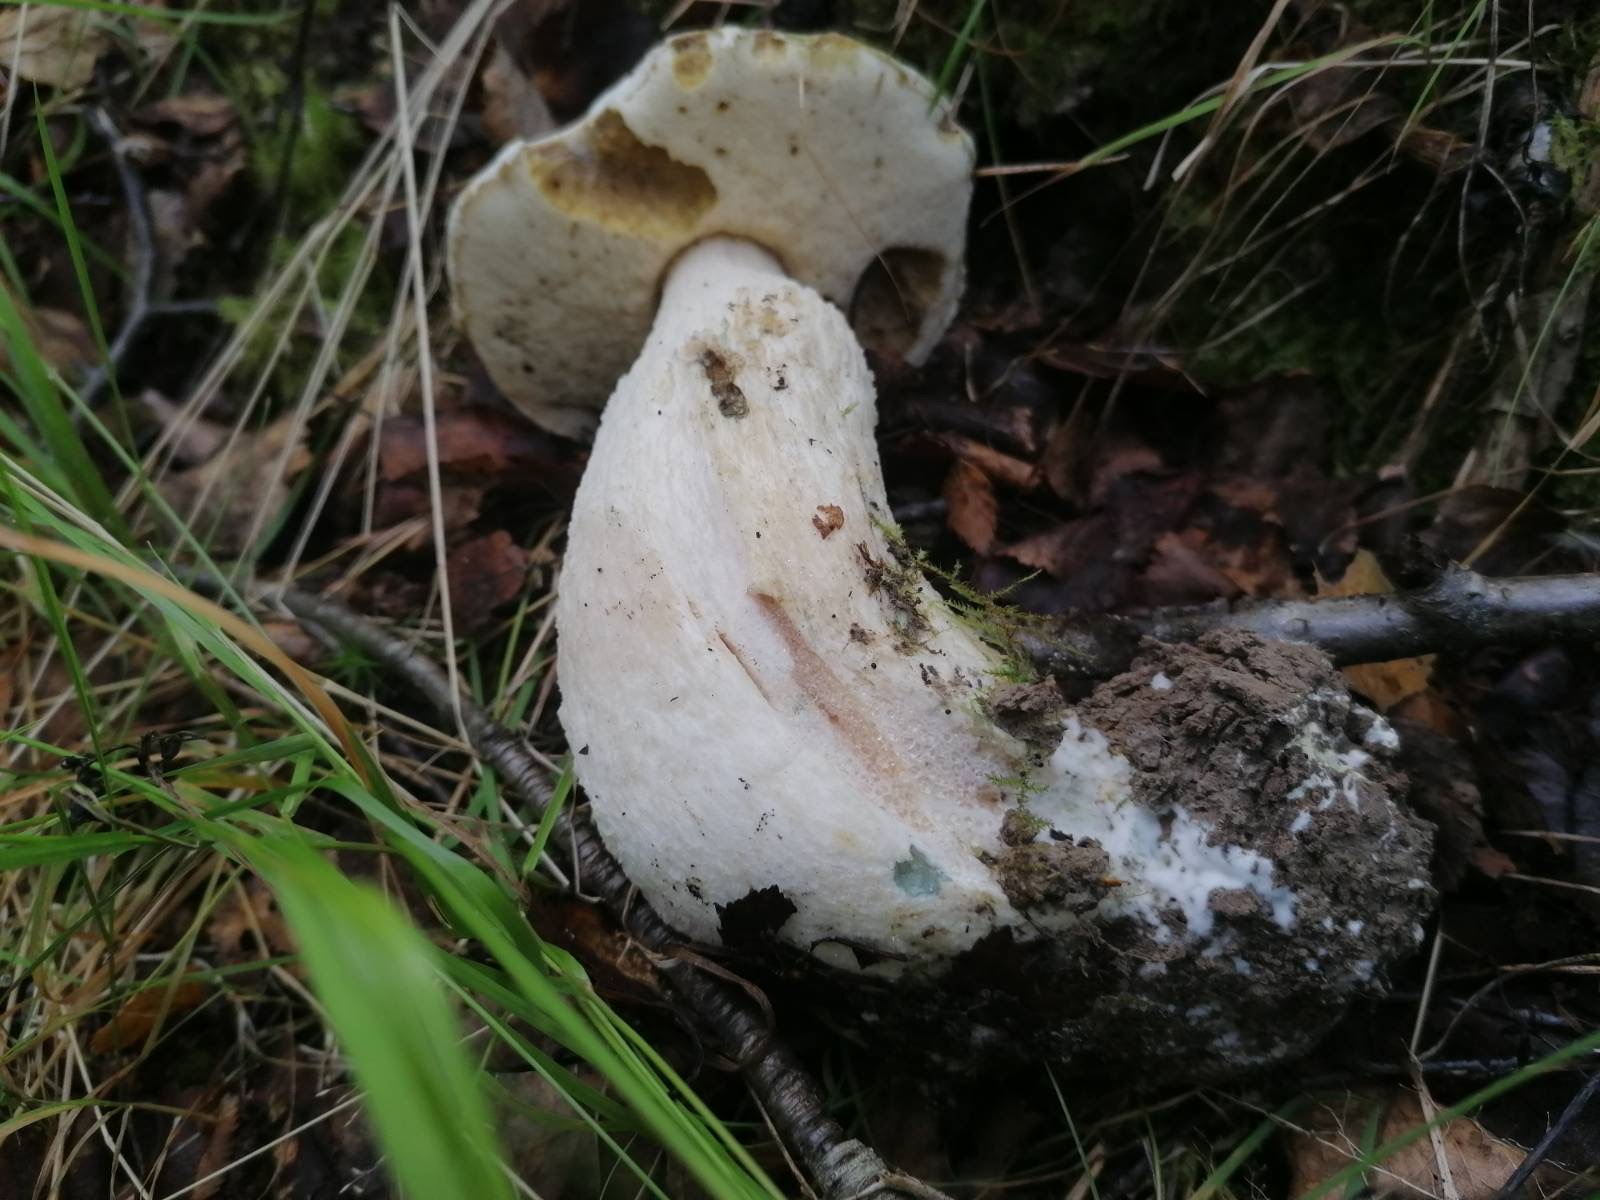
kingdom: Fungi
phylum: Basidiomycota
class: Agaricomycetes
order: Boletales
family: Boletaceae
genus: Leccinum
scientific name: Leccinum
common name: skælrørhat
